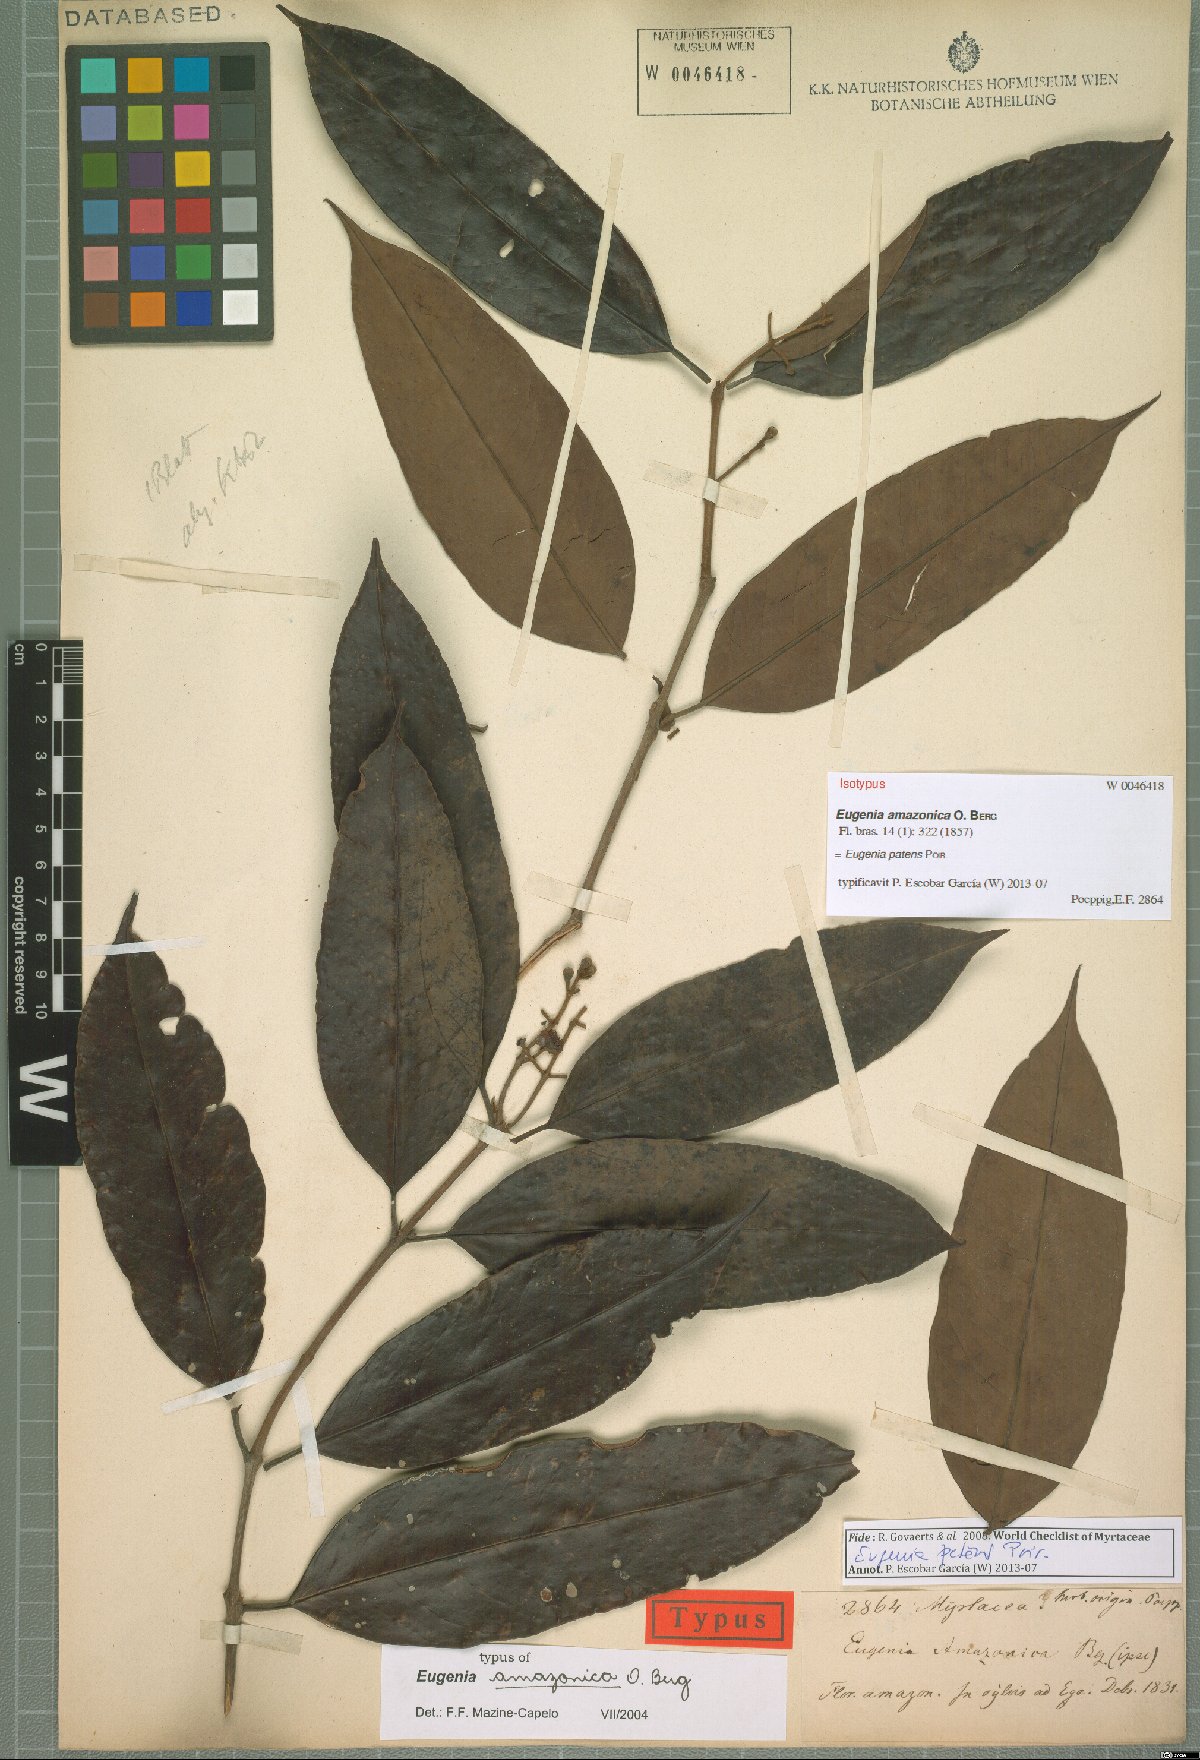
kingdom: Plantae
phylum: Tracheophyta
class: Magnoliopsida
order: Myrtales
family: Myrtaceae
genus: Eugenia
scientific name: Eugenia patens
